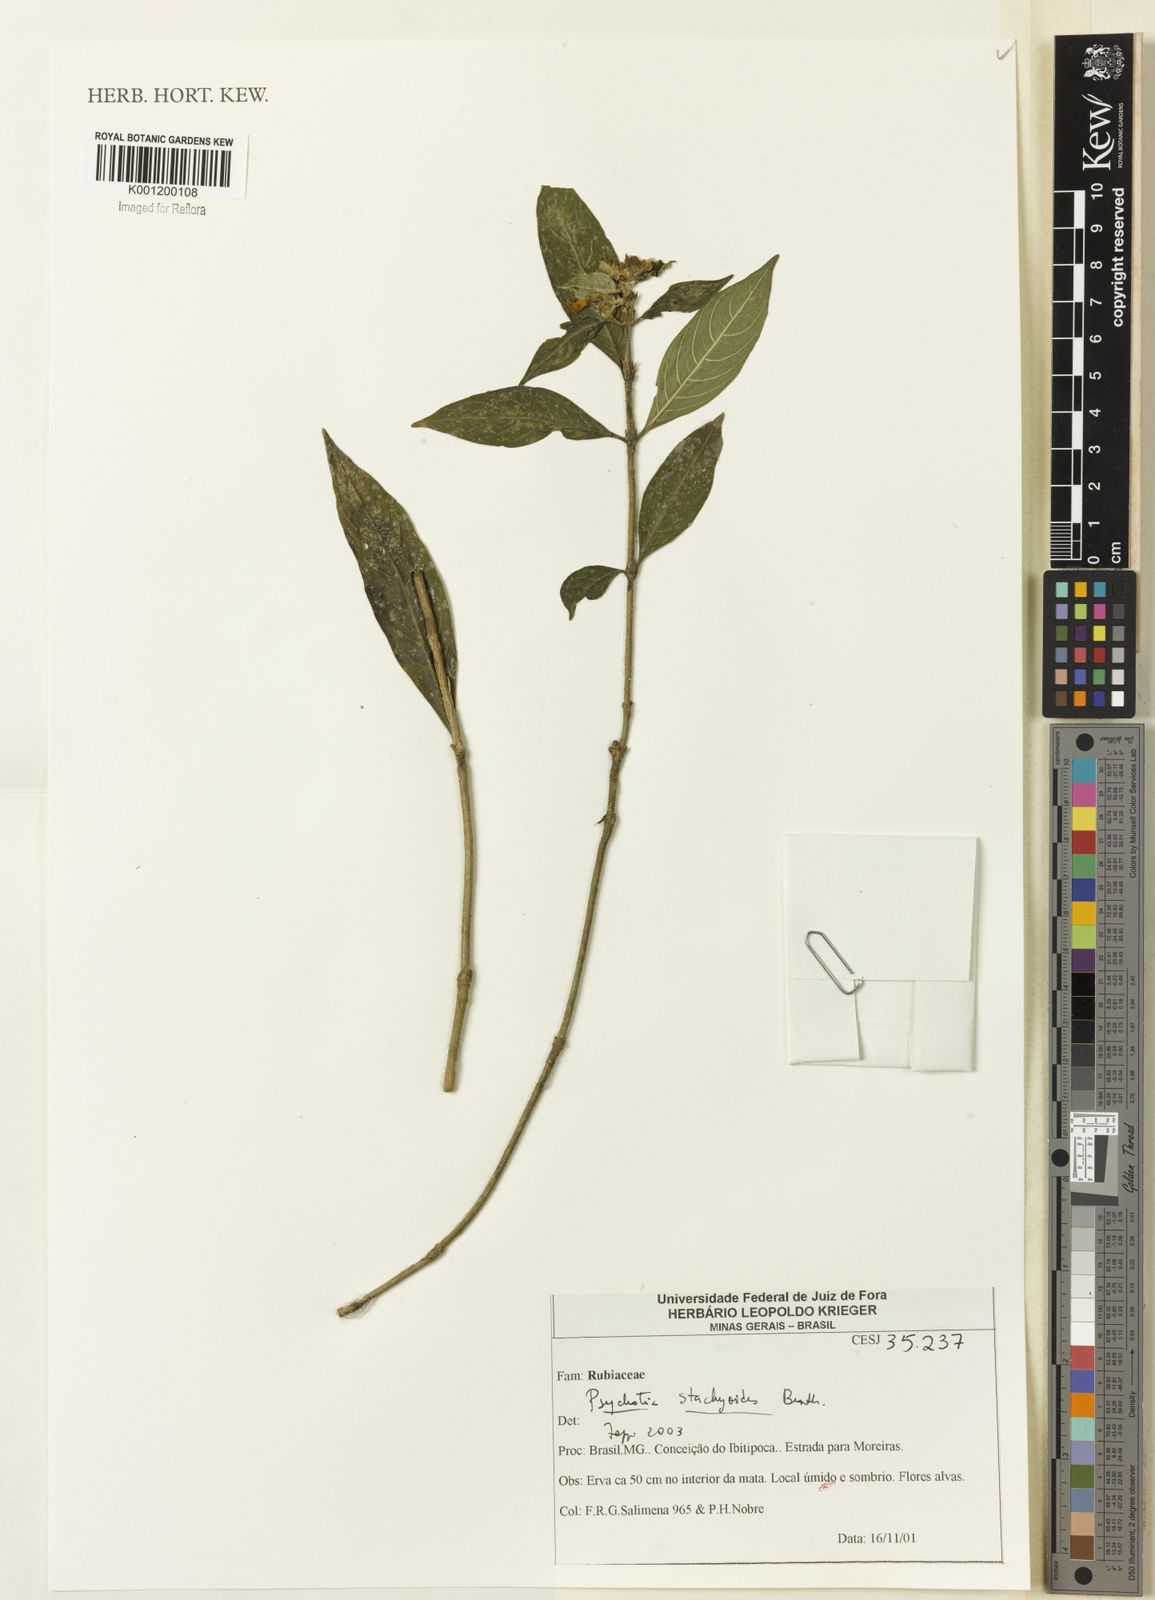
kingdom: Plantae
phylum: Tracheophyta
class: Magnoliopsida
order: Gentianales
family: Rubiaceae
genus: Psychotria
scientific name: Psychotria stachyoides
